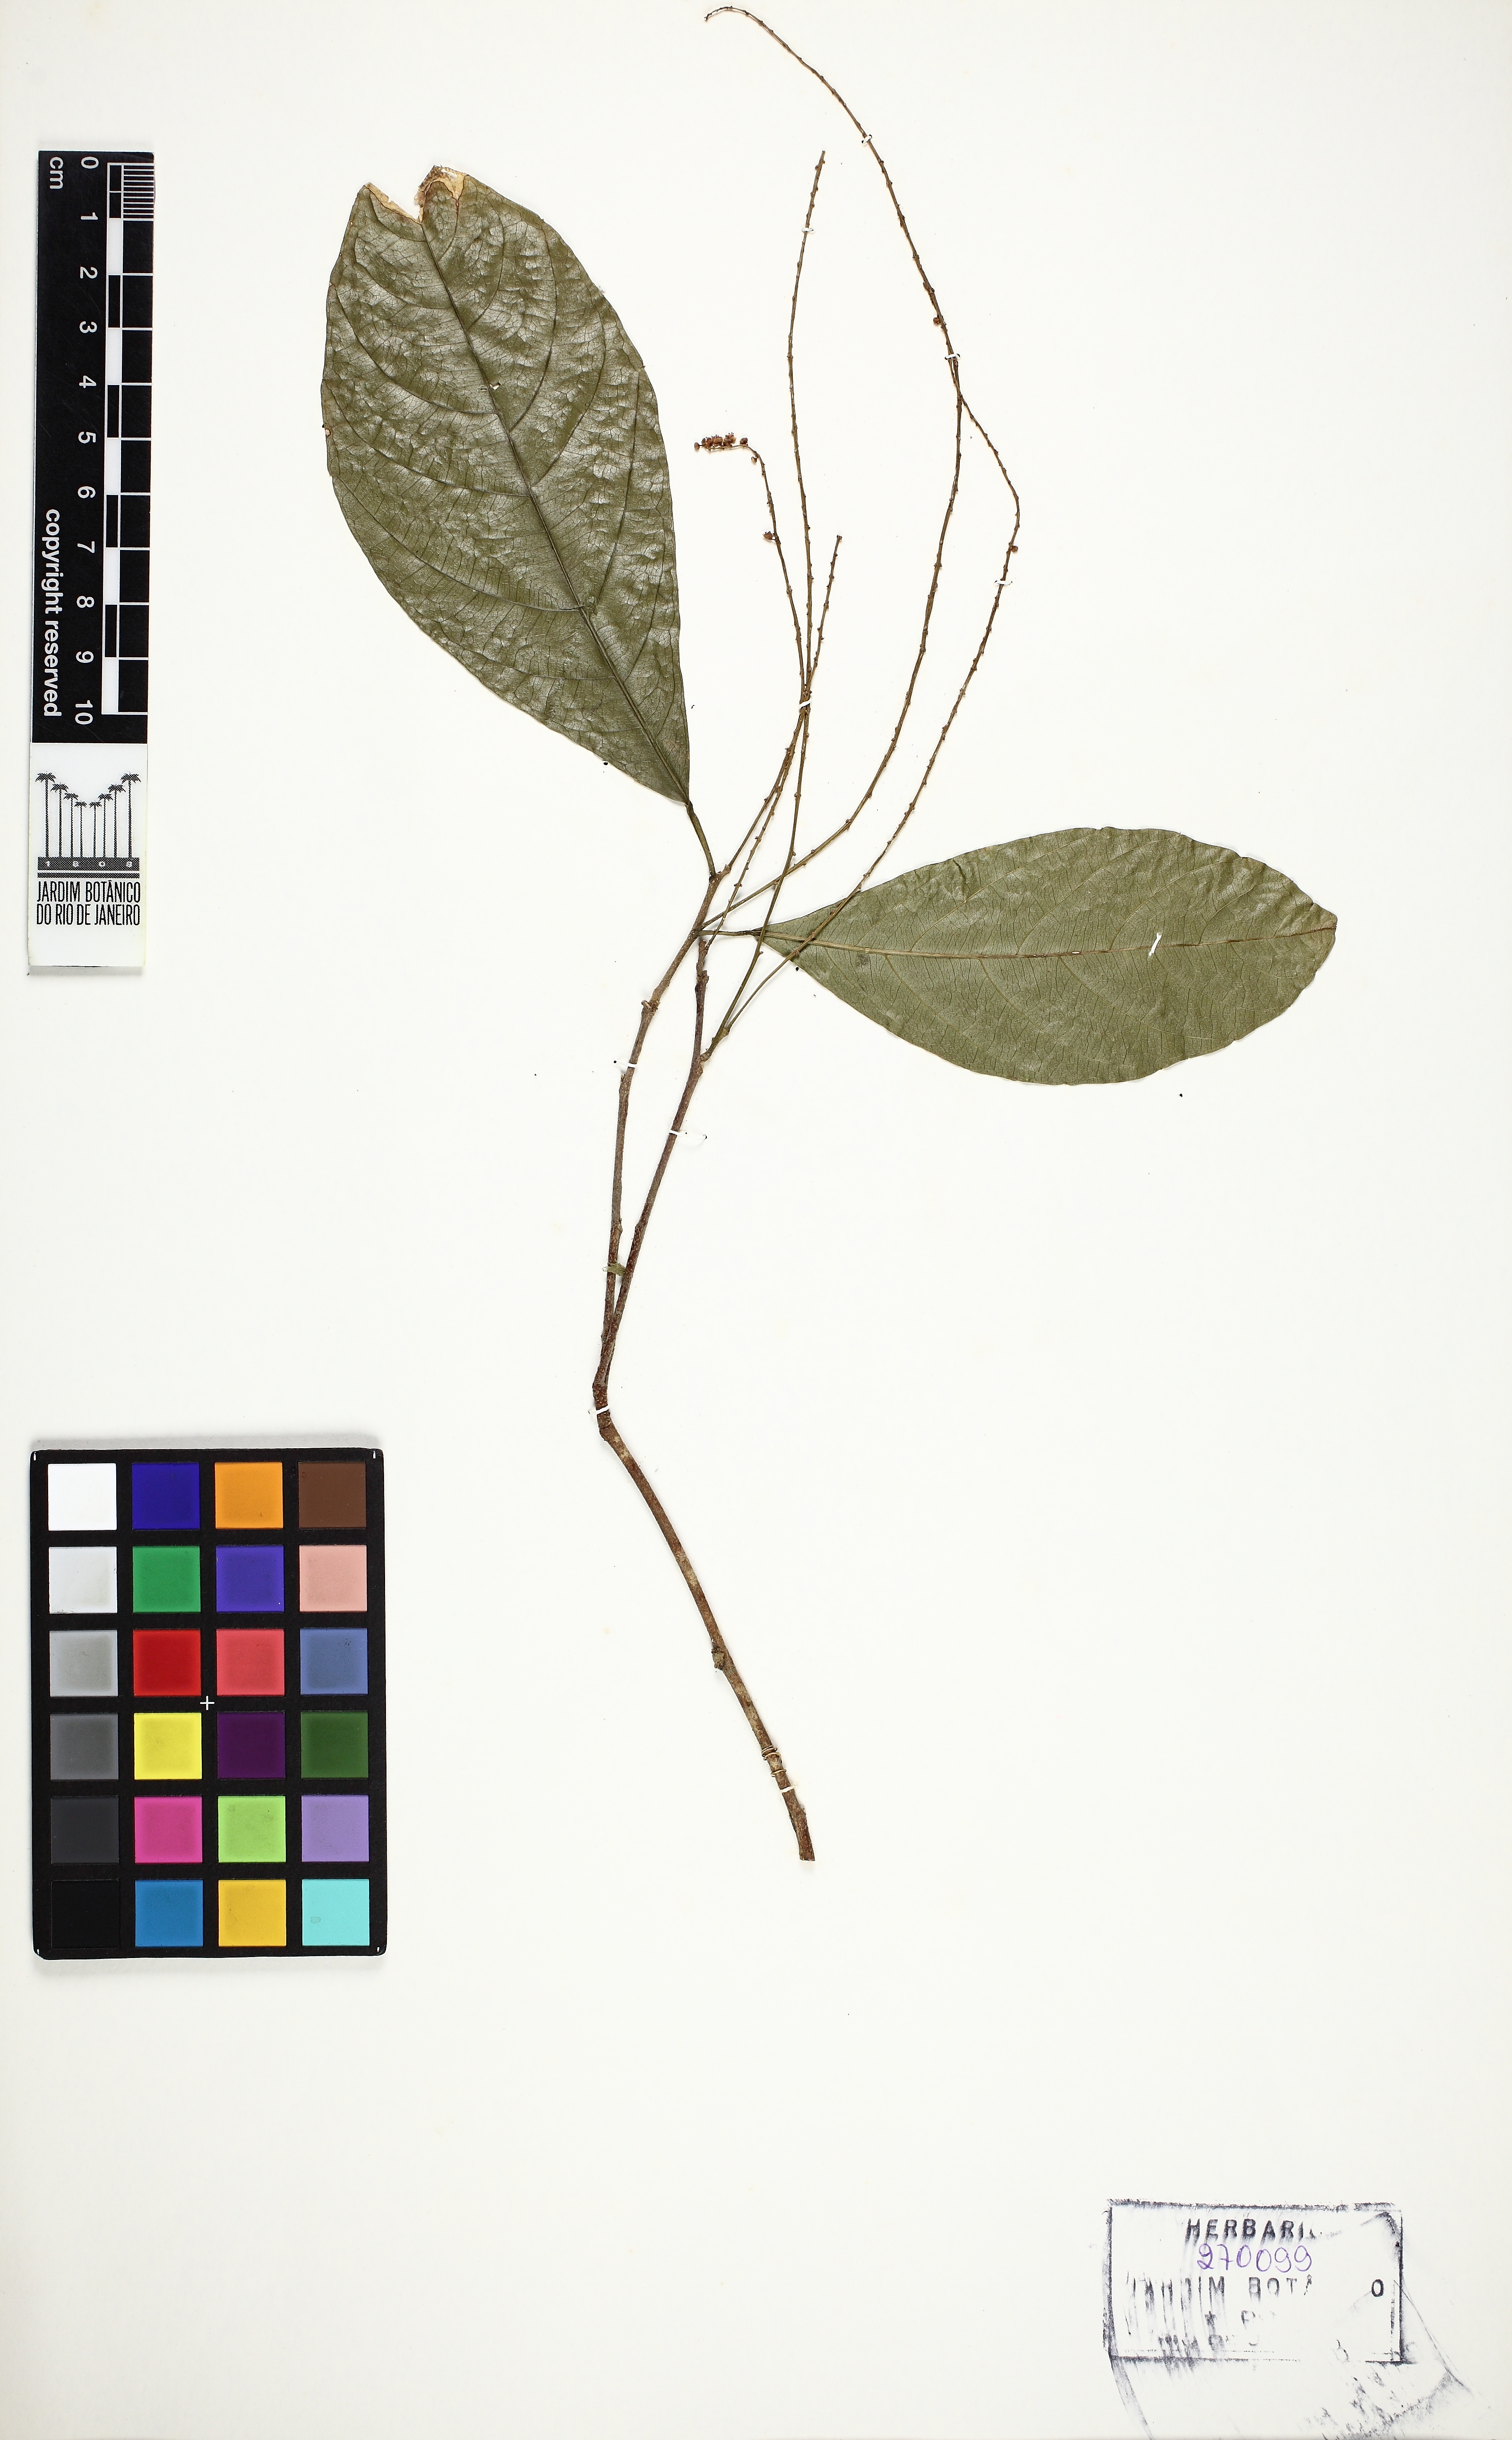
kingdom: Plantae
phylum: Tracheophyta
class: Magnoliopsida
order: Sapindales
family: Sapindaceae
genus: Allophylus
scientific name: Allophylus strictus
